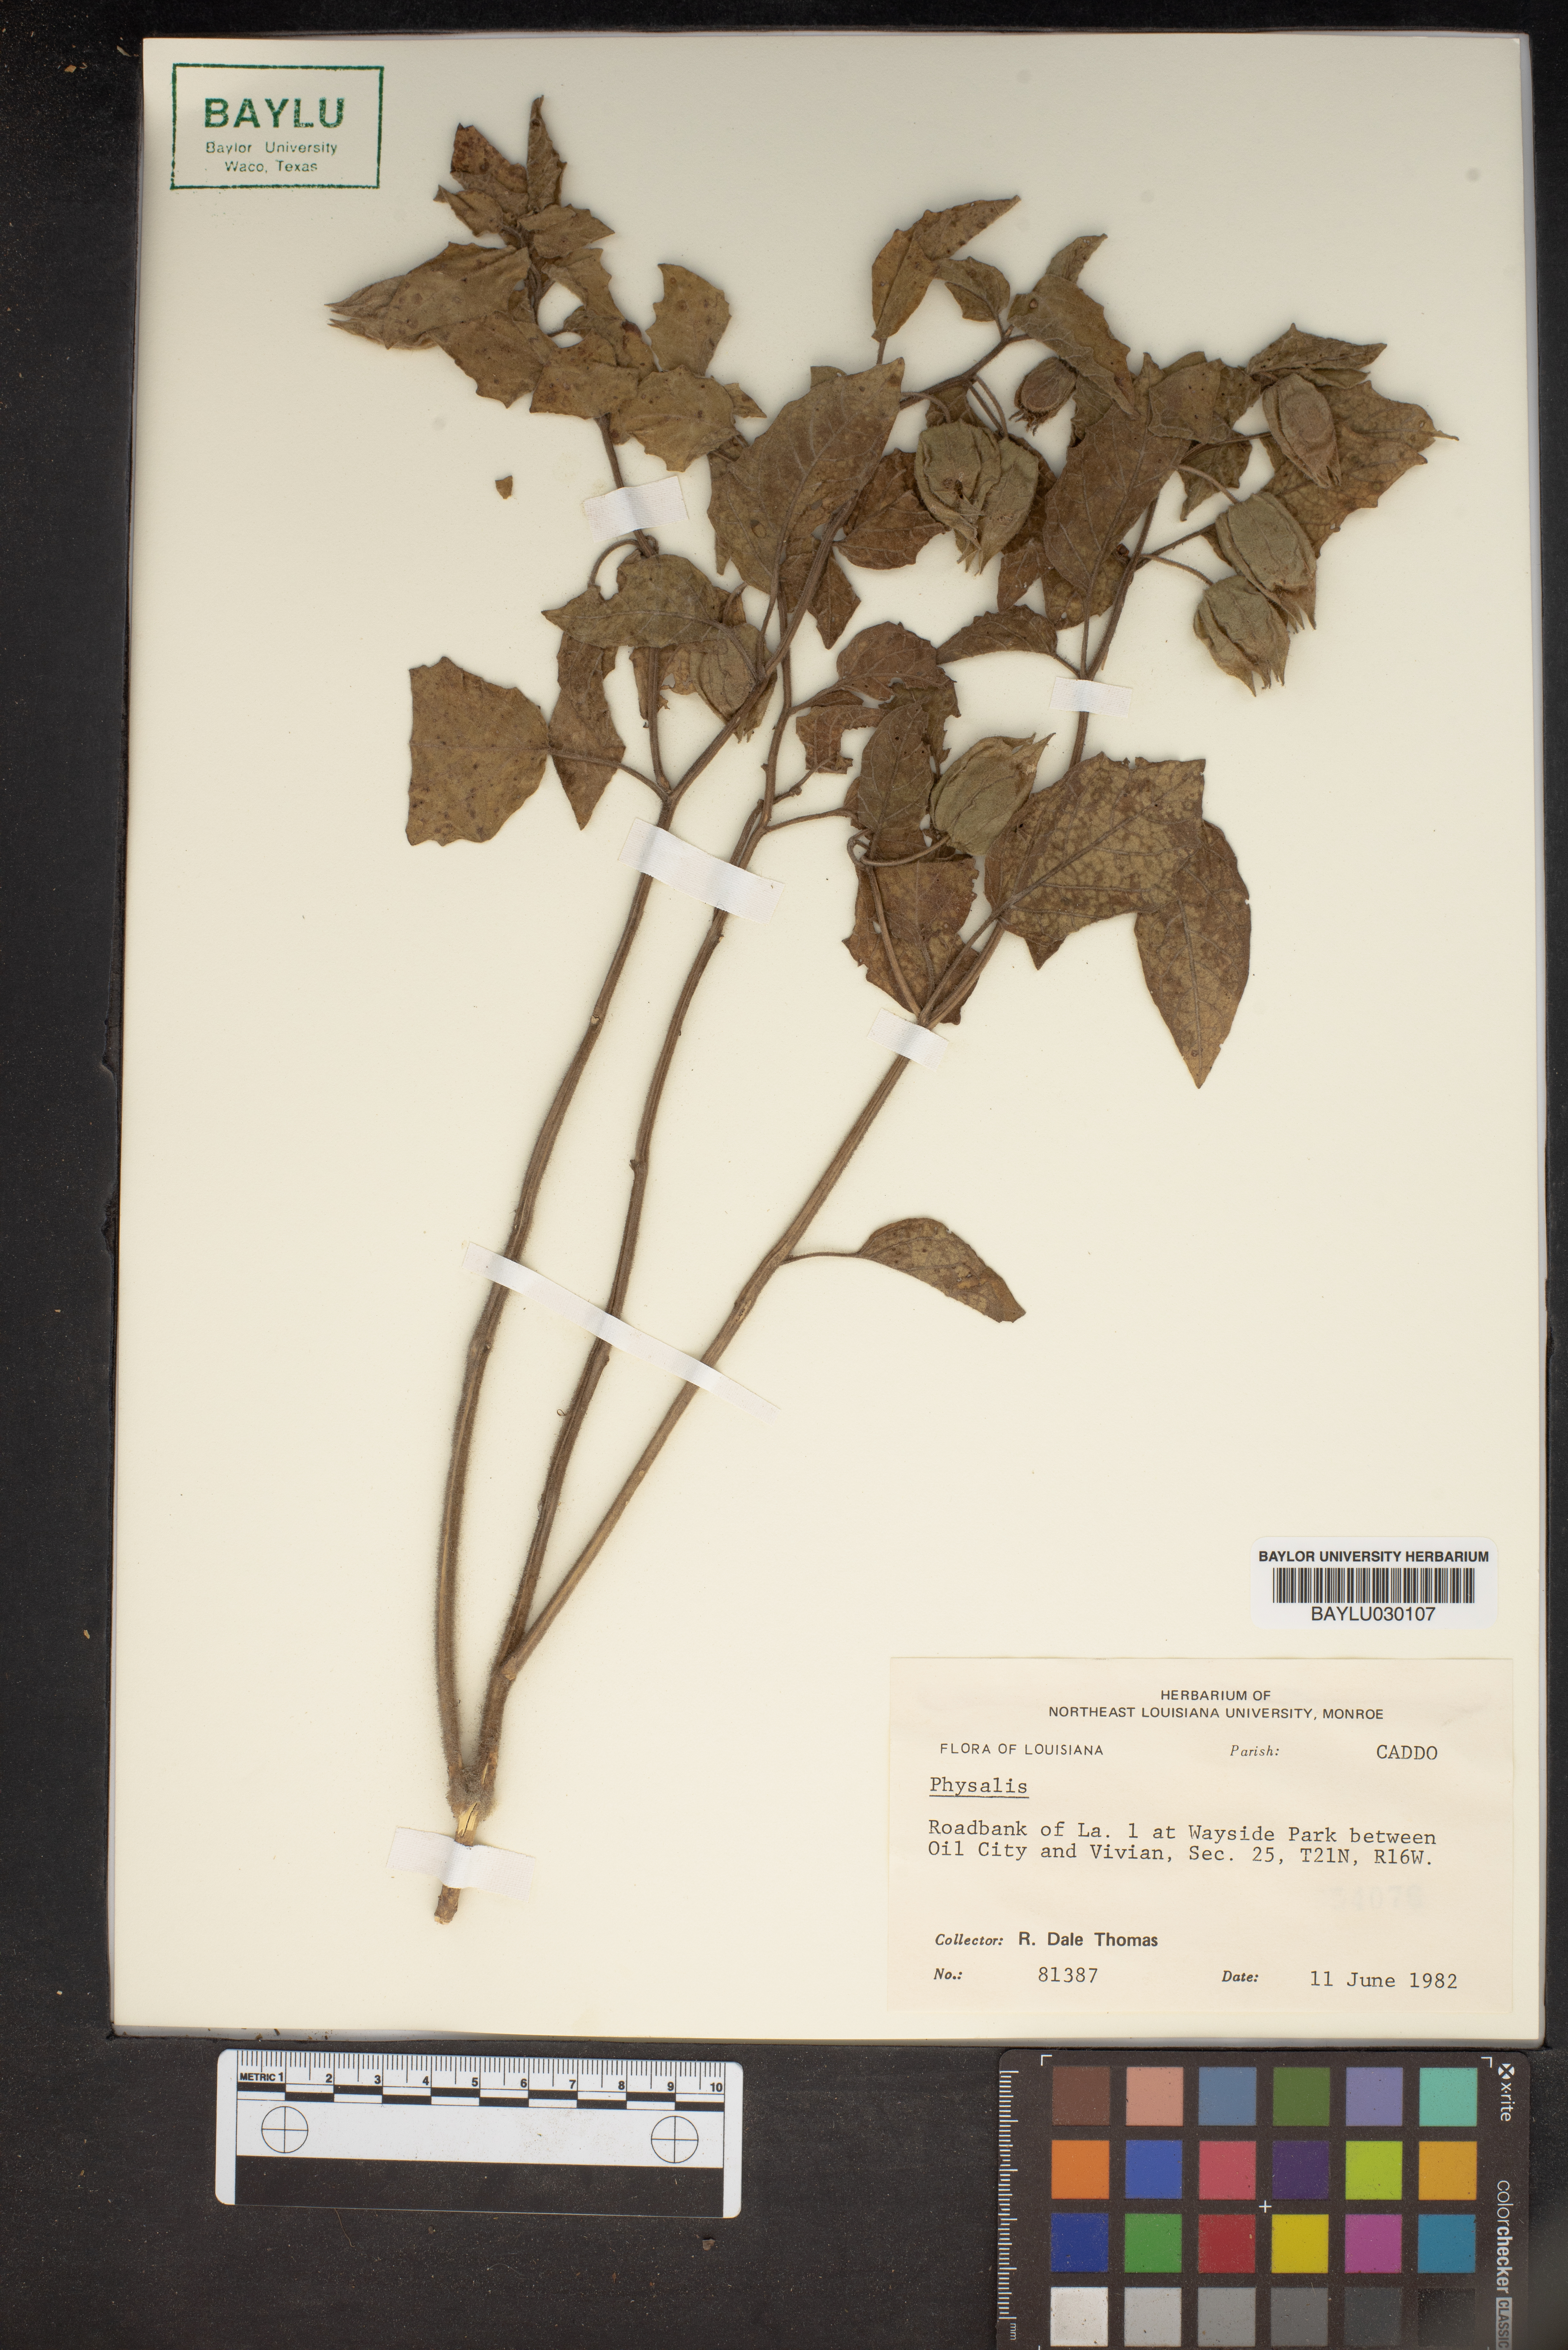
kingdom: Plantae
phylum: Tracheophyta
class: Magnoliopsida
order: Solanales
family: Solanaceae
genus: Physalis
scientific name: Physalis
